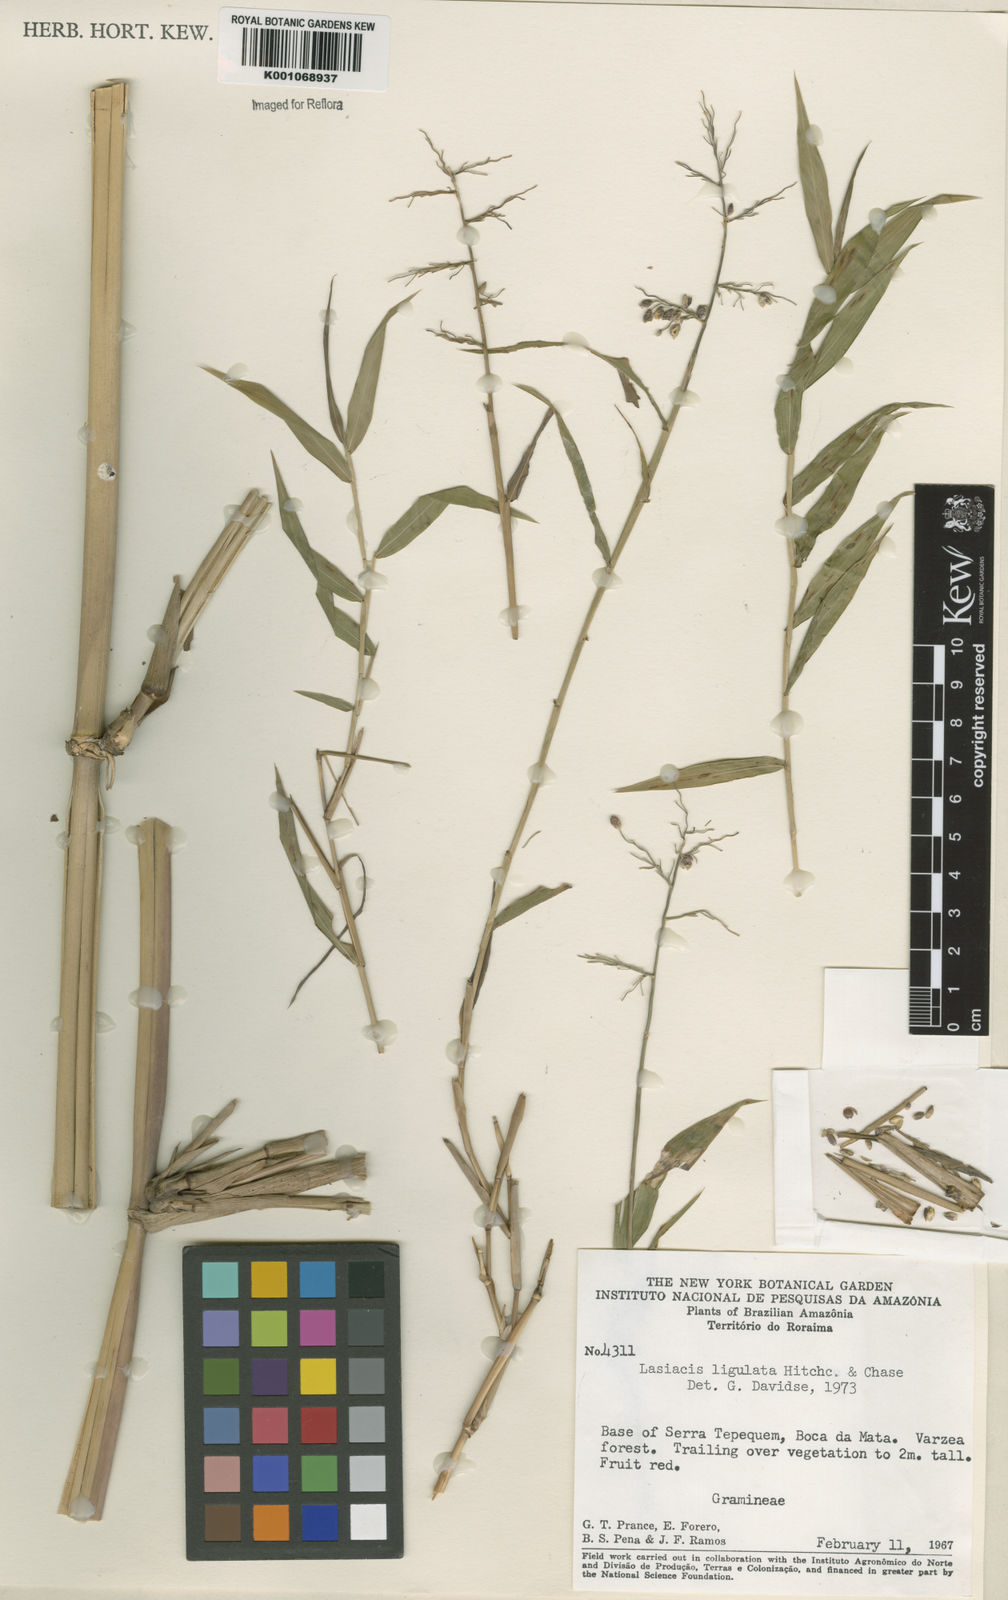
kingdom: Plantae
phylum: Tracheophyta
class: Liliopsida
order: Poales
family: Poaceae
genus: Lasiacis
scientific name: Lasiacis ligulata
